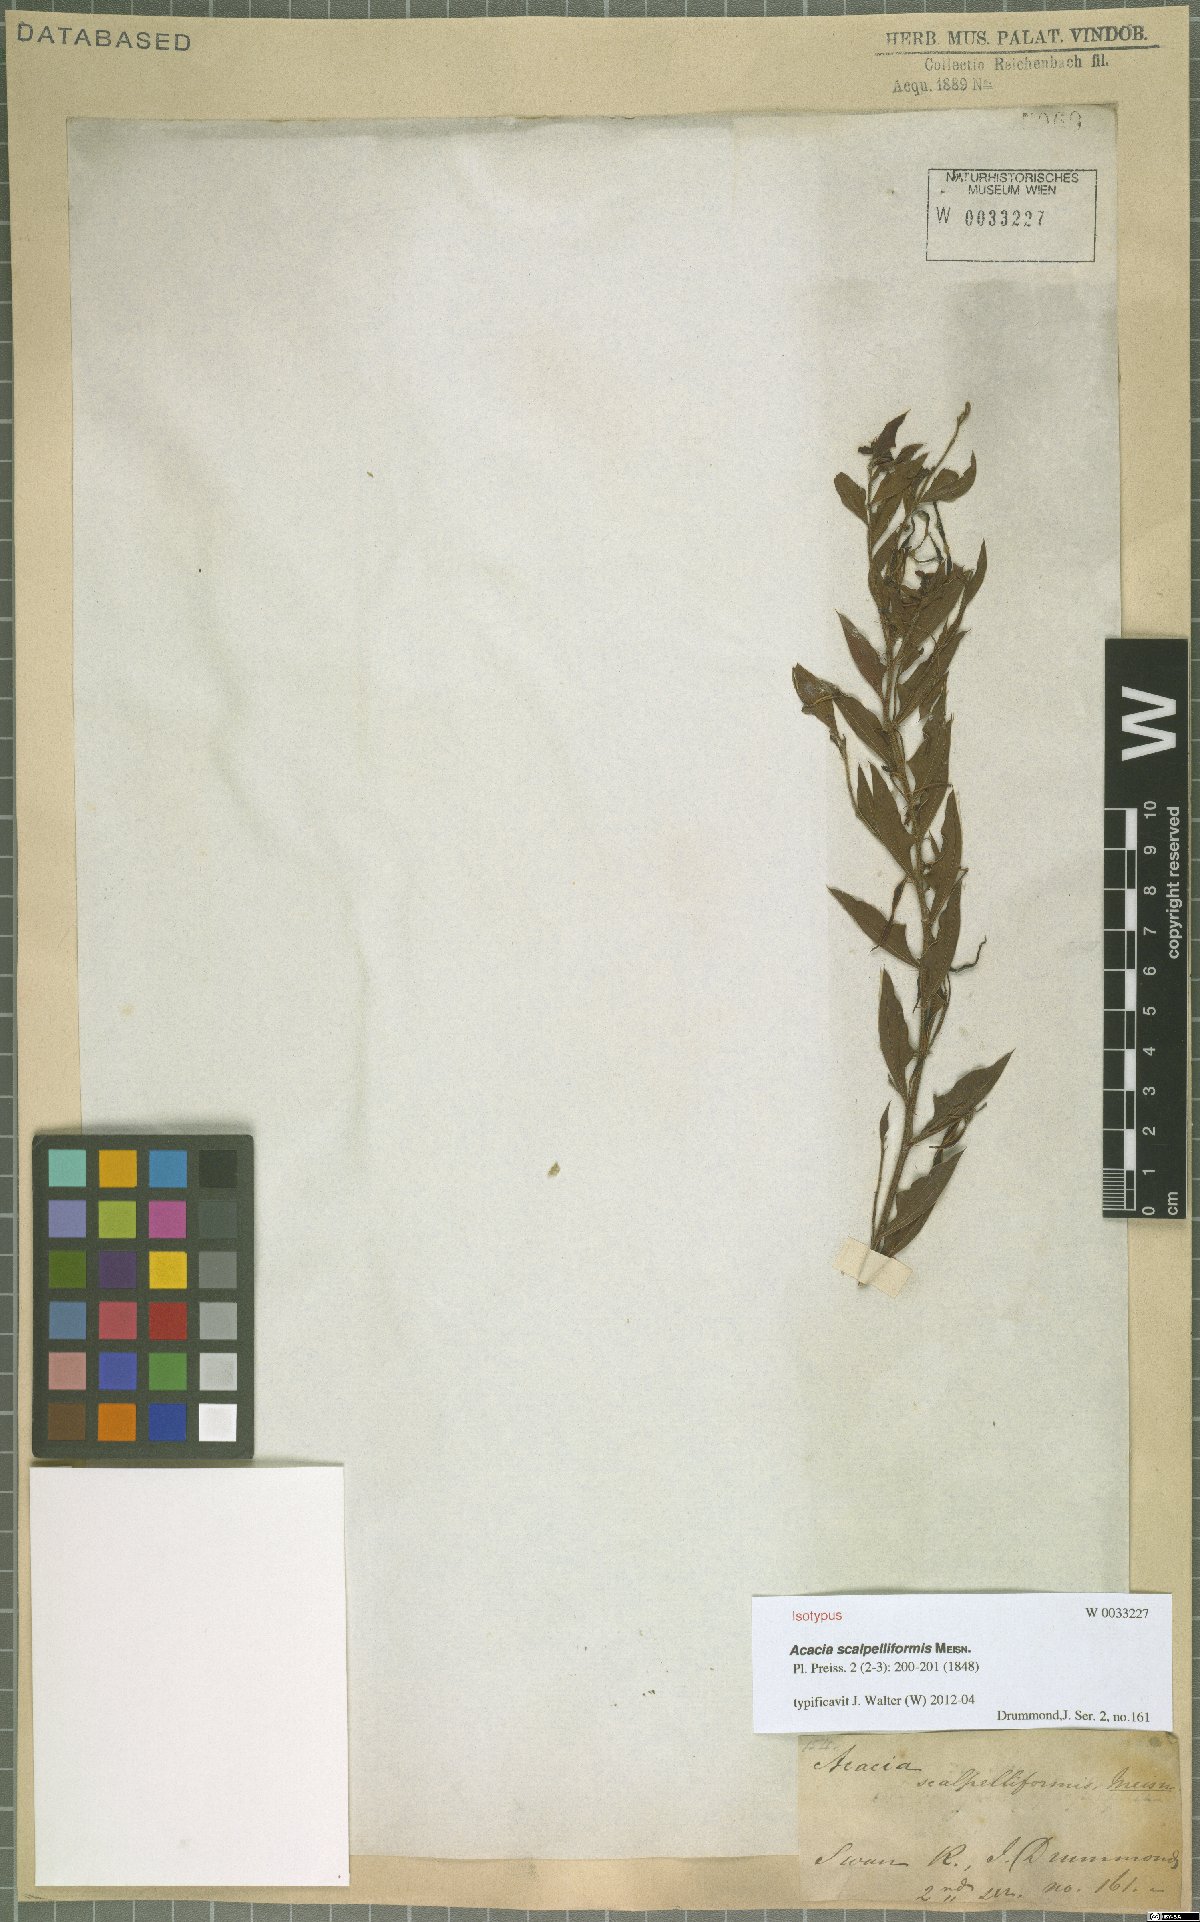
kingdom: Plantae
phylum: Tracheophyta
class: Magnoliopsida
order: Fabales
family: Fabaceae
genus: Acacia
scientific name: Acacia scalpelliformis
